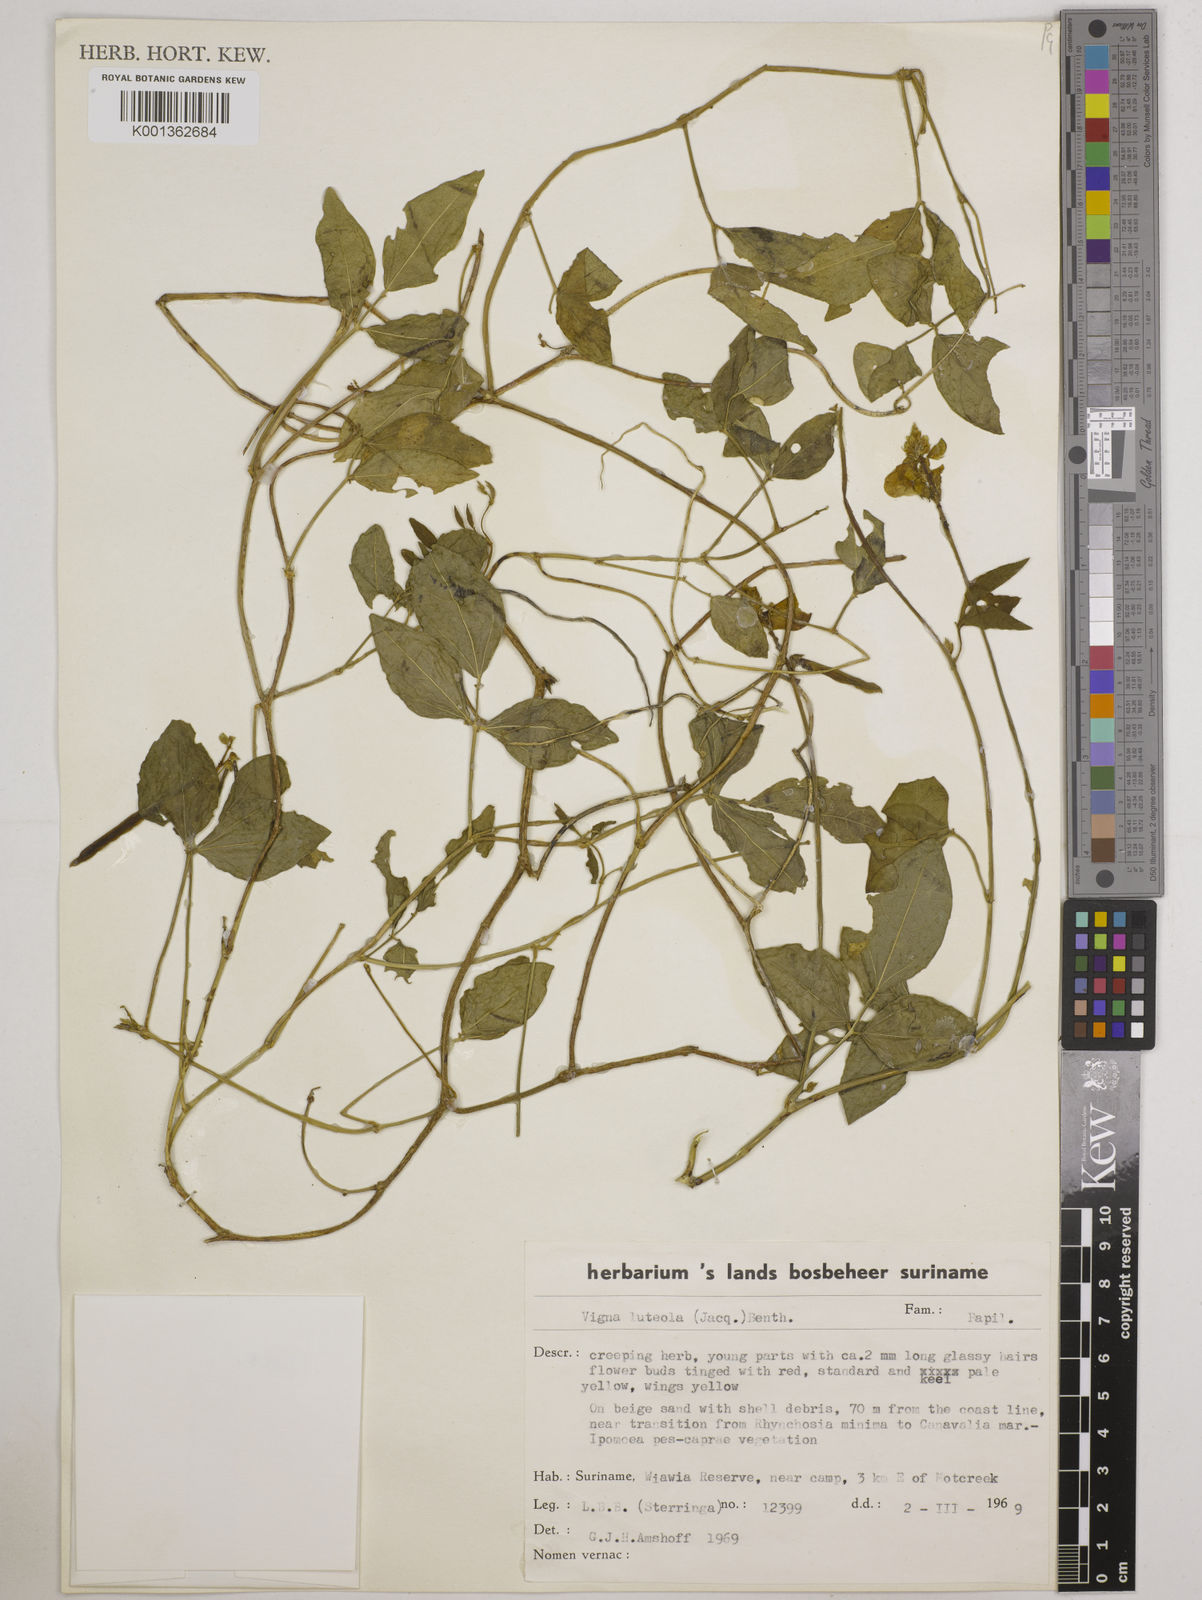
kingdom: Plantae
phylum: Tracheophyta
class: Magnoliopsida
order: Fabales
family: Fabaceae
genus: Vigna
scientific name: Vigna luteola
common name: Hairypod cowpea
